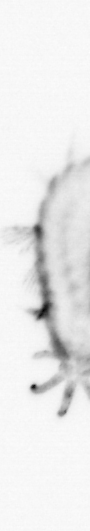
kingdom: Animalia
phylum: Annelida
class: Polychaeta
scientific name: Polychaeta
